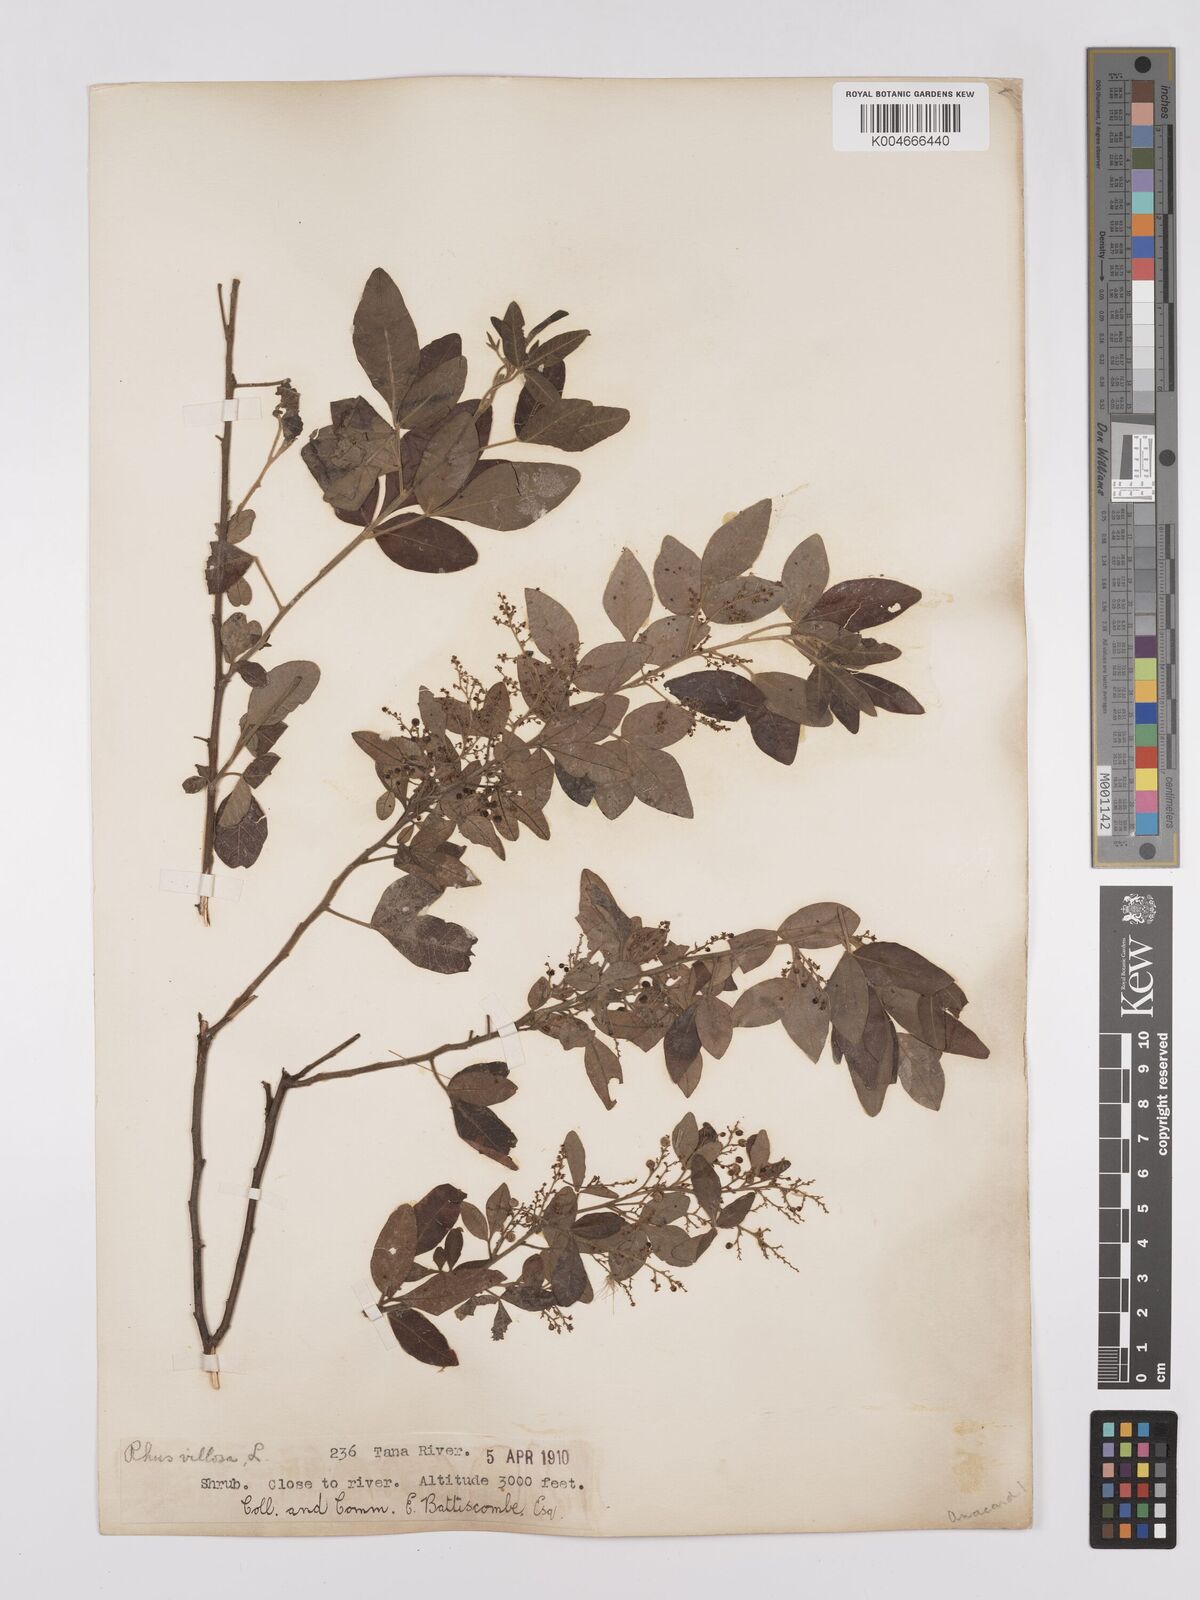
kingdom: Plantae
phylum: Tracheophyta
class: Magnoliopsida
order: Sapindales
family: Anacardiaceae
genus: Searsia
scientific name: Searsia quartiniana
